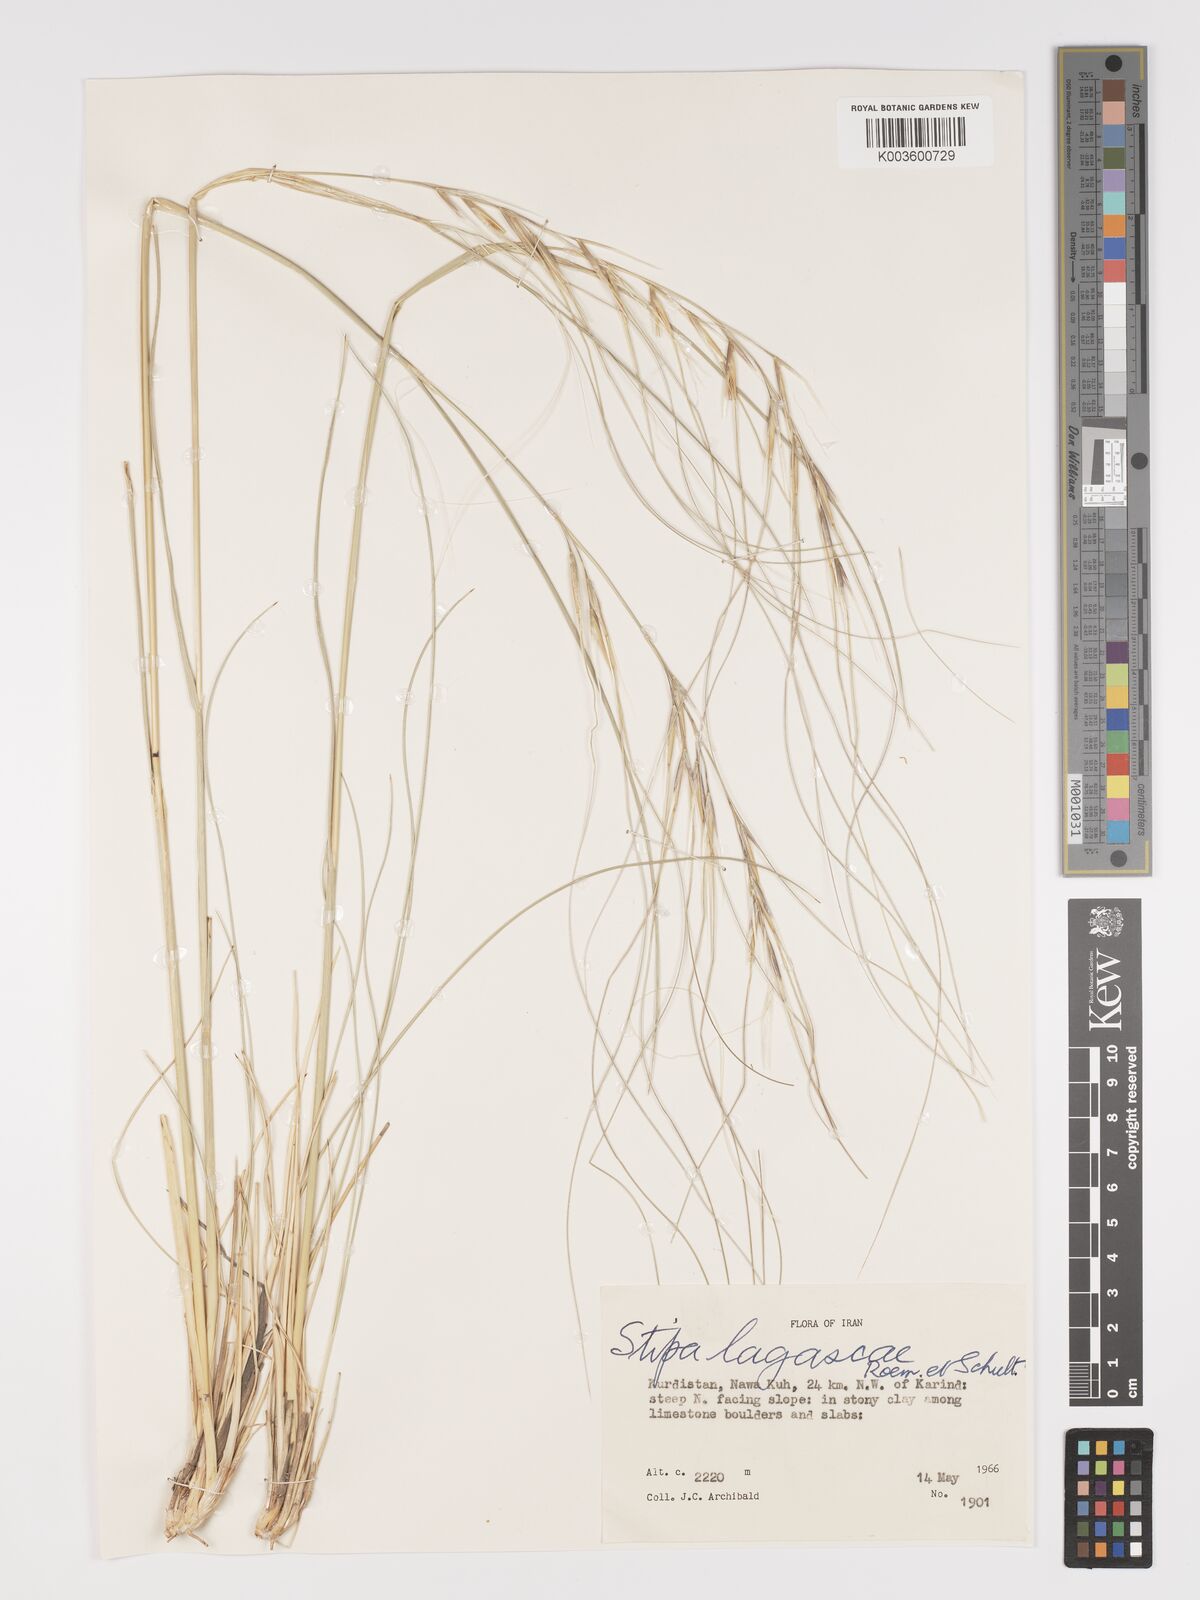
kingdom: Plantae
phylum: Tracheophyta
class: Liliopsida
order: Poales
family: Poaceae
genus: Stipa
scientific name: Stipa holosericea
